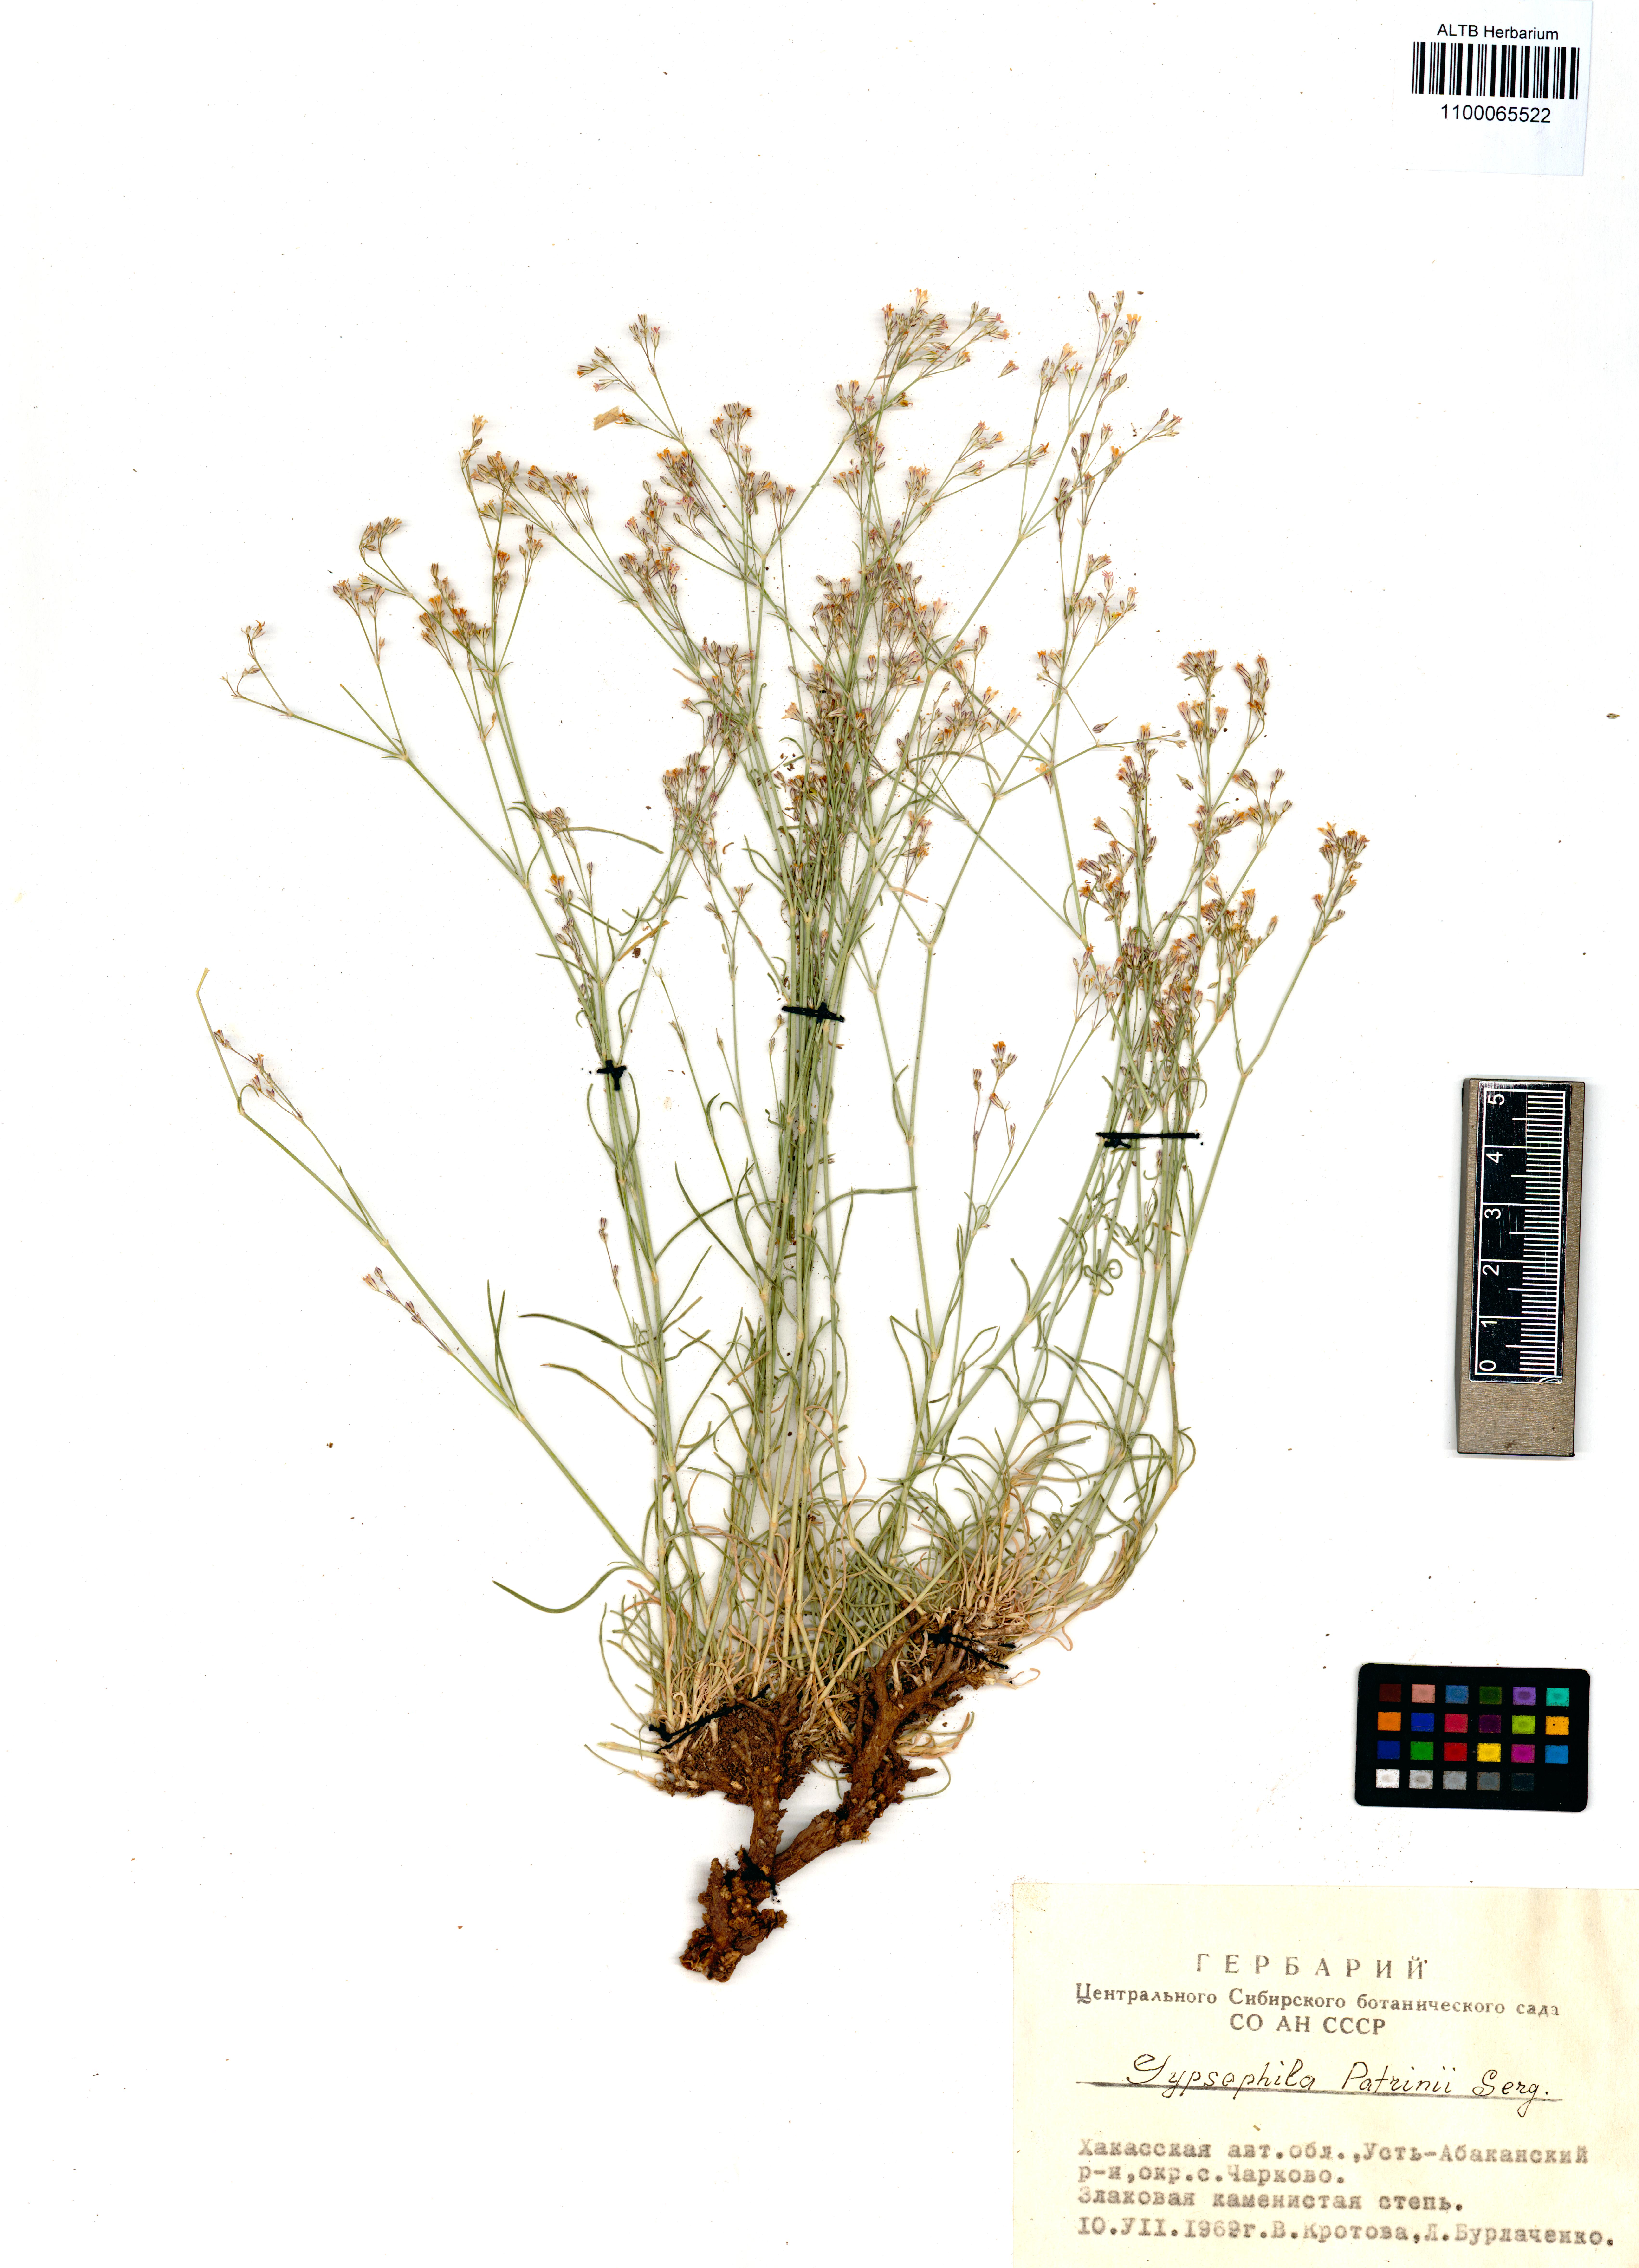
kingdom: Plantae
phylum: Tracheophyta
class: Magnoliopsida
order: Caryophyllales
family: Caryophyllaceae
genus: Gypsophila
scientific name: Gypsophila patrinii
